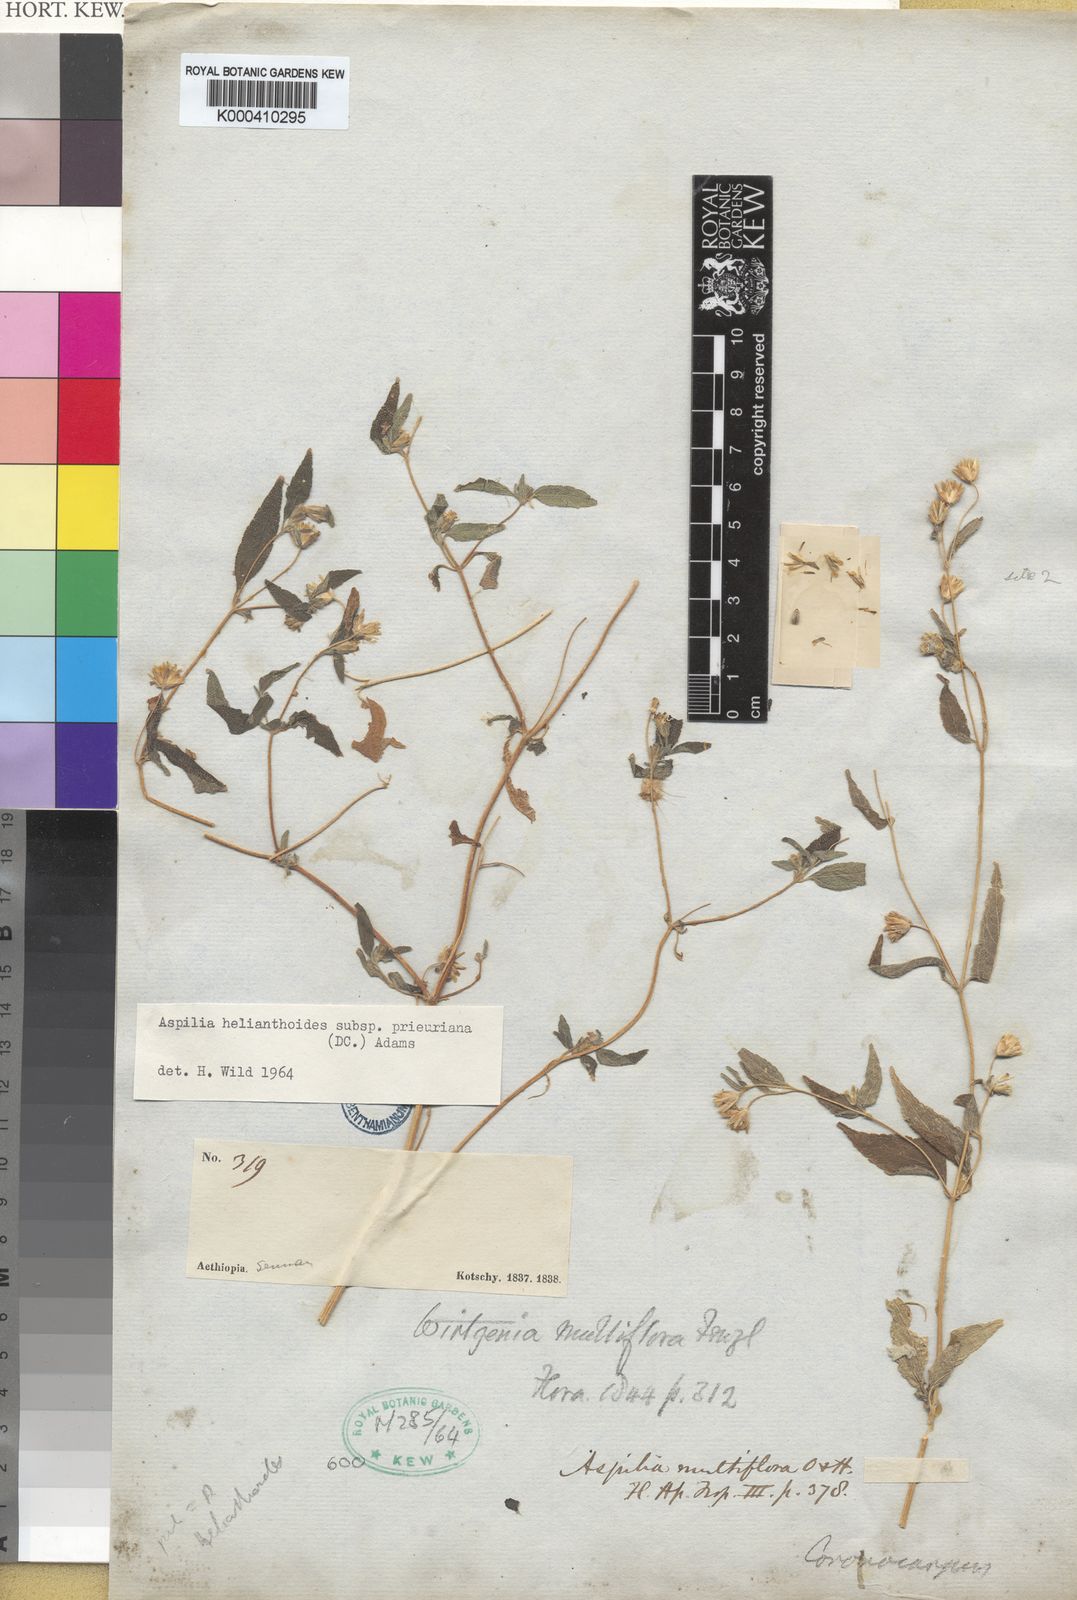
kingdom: Plantae
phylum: Tracheophyta
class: Magnoliopsida
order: Asterales
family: Asteraceae
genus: Aspilia
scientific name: Aspilia ciliata
